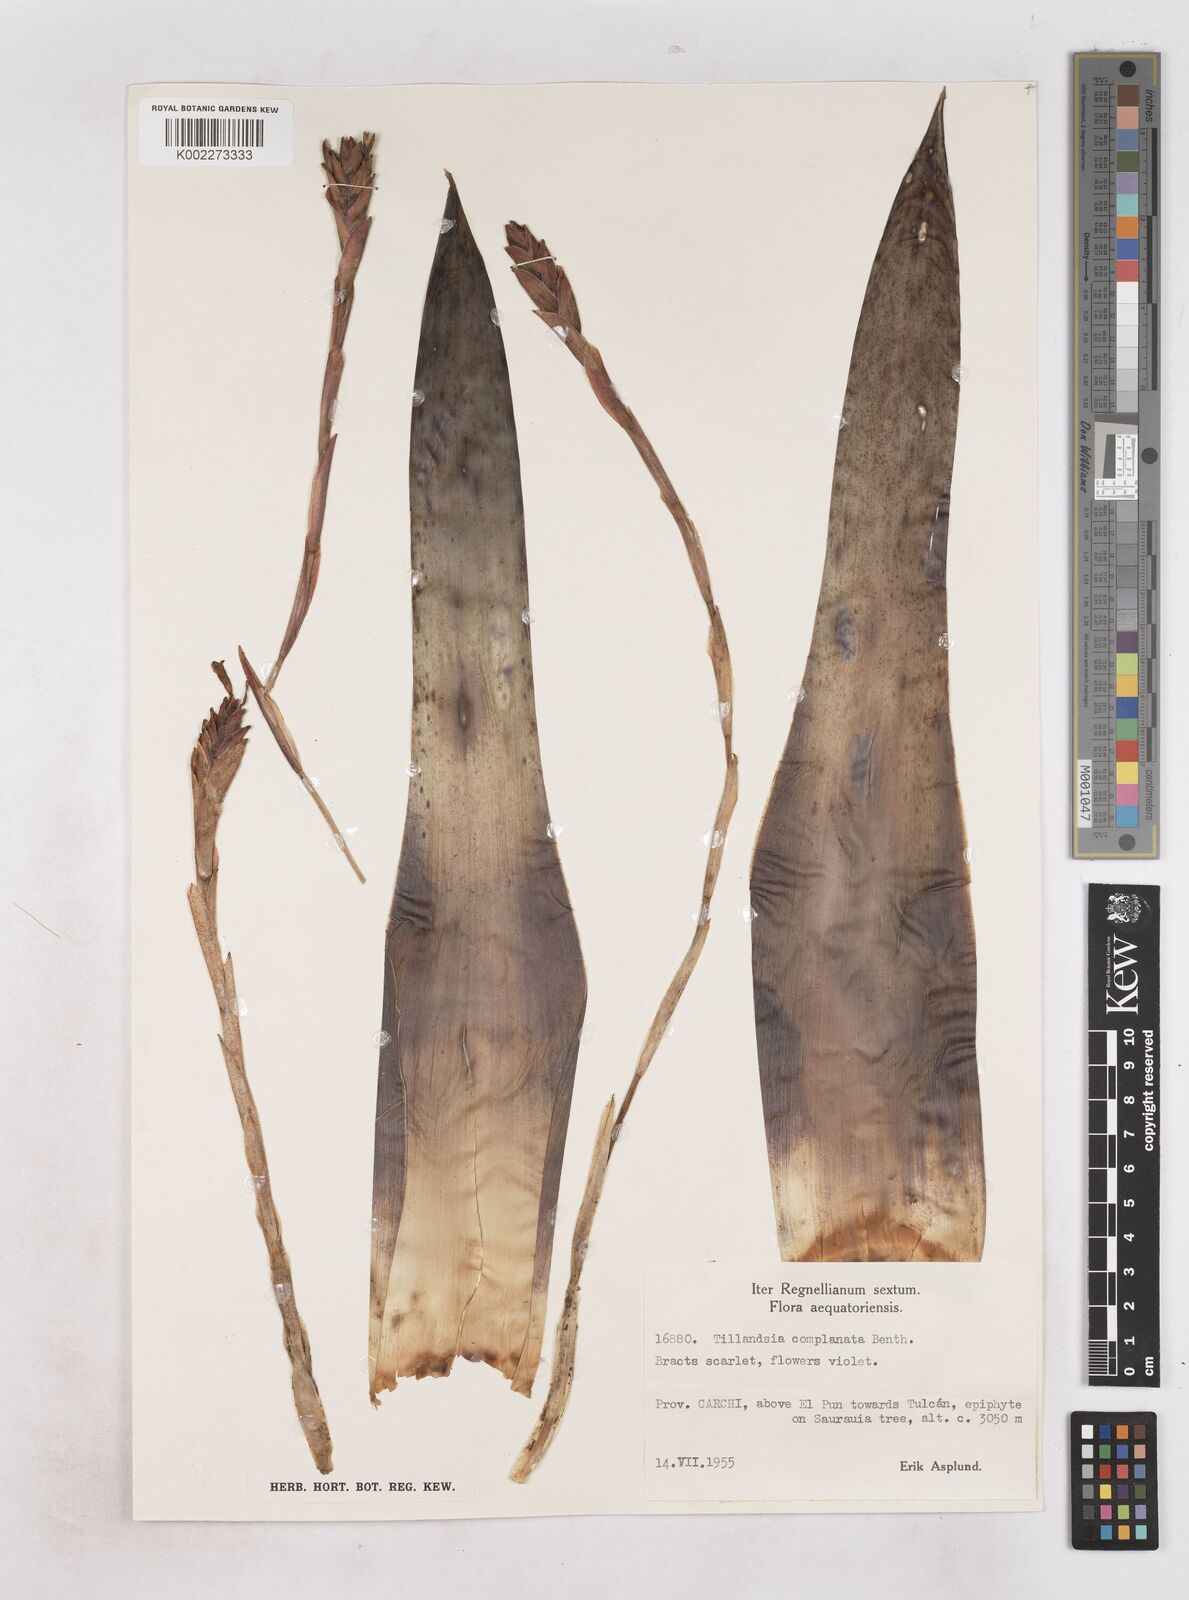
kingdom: Plantae
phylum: Tracheophyta
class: Liliopsida
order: Poales
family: Bromeliaceae
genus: Tillandsia
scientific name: Tillandsia complanata
